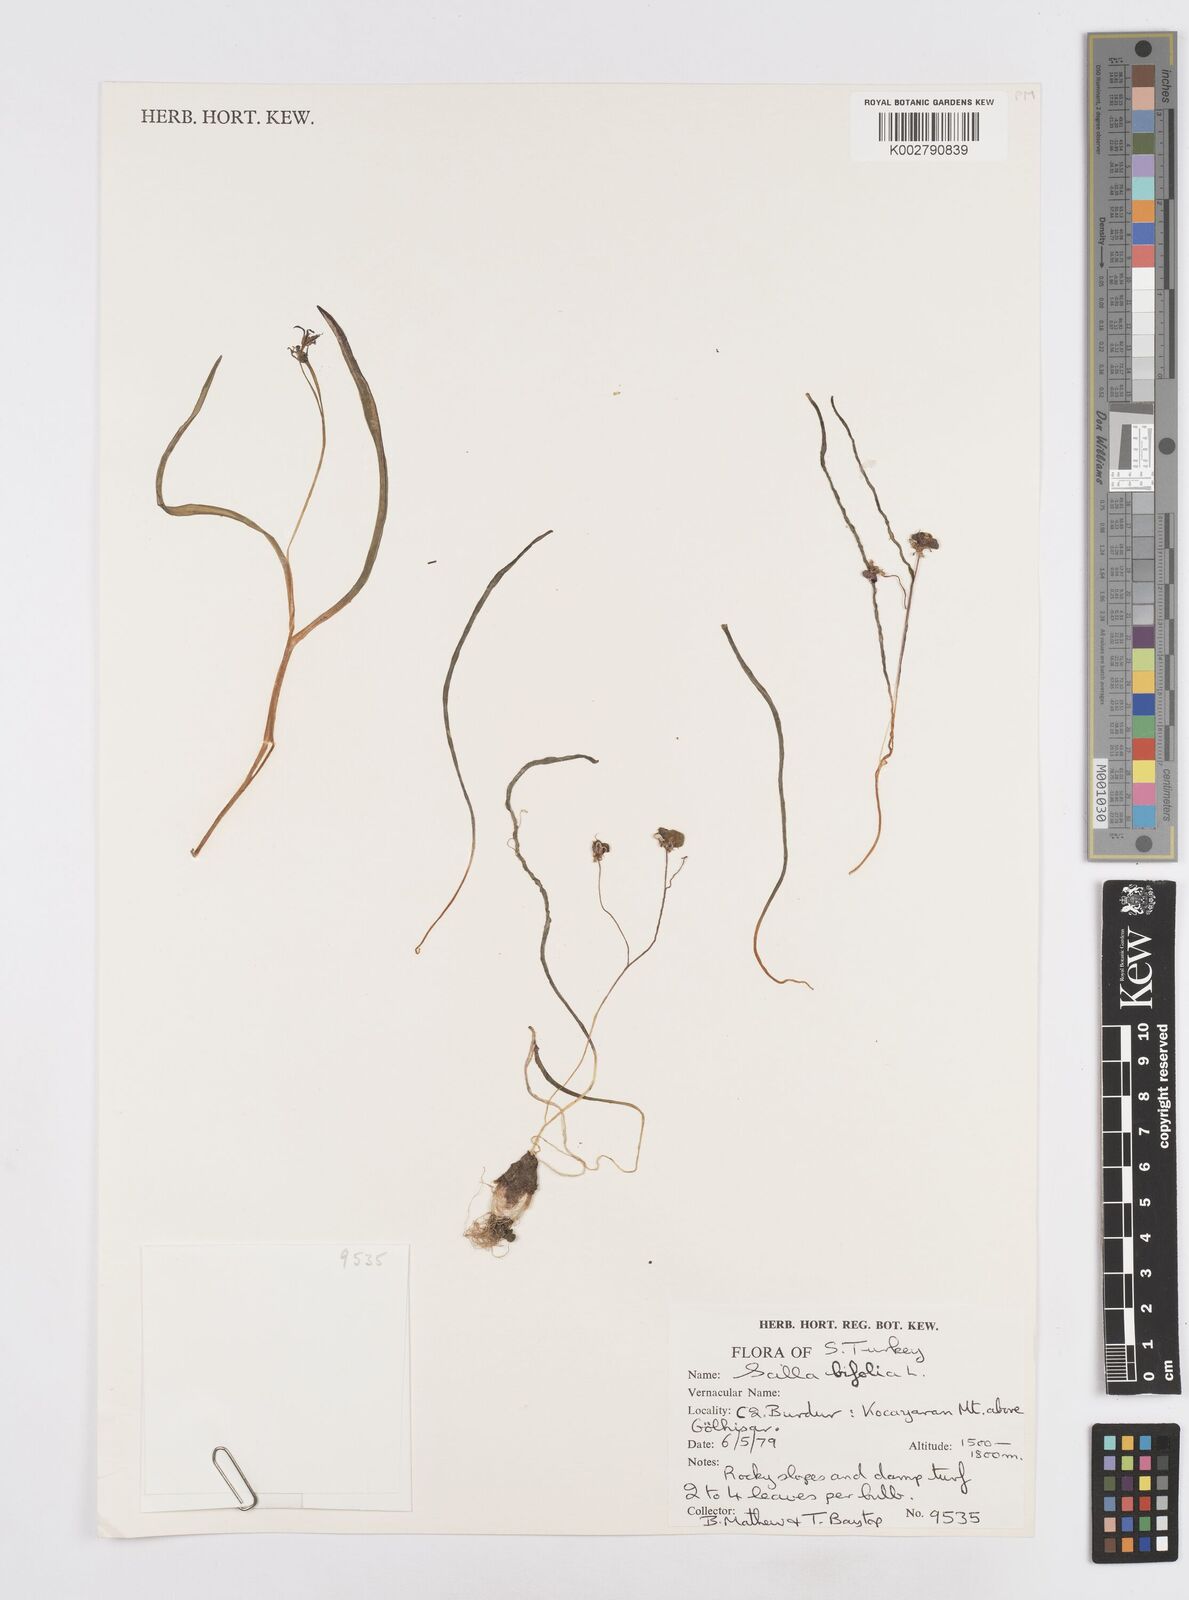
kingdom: Plantae
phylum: Tracheophyta
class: Liliopsida
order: Asparagales
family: Asparagaceae
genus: Scilla
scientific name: Scilla bifolia
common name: Alpine squill
